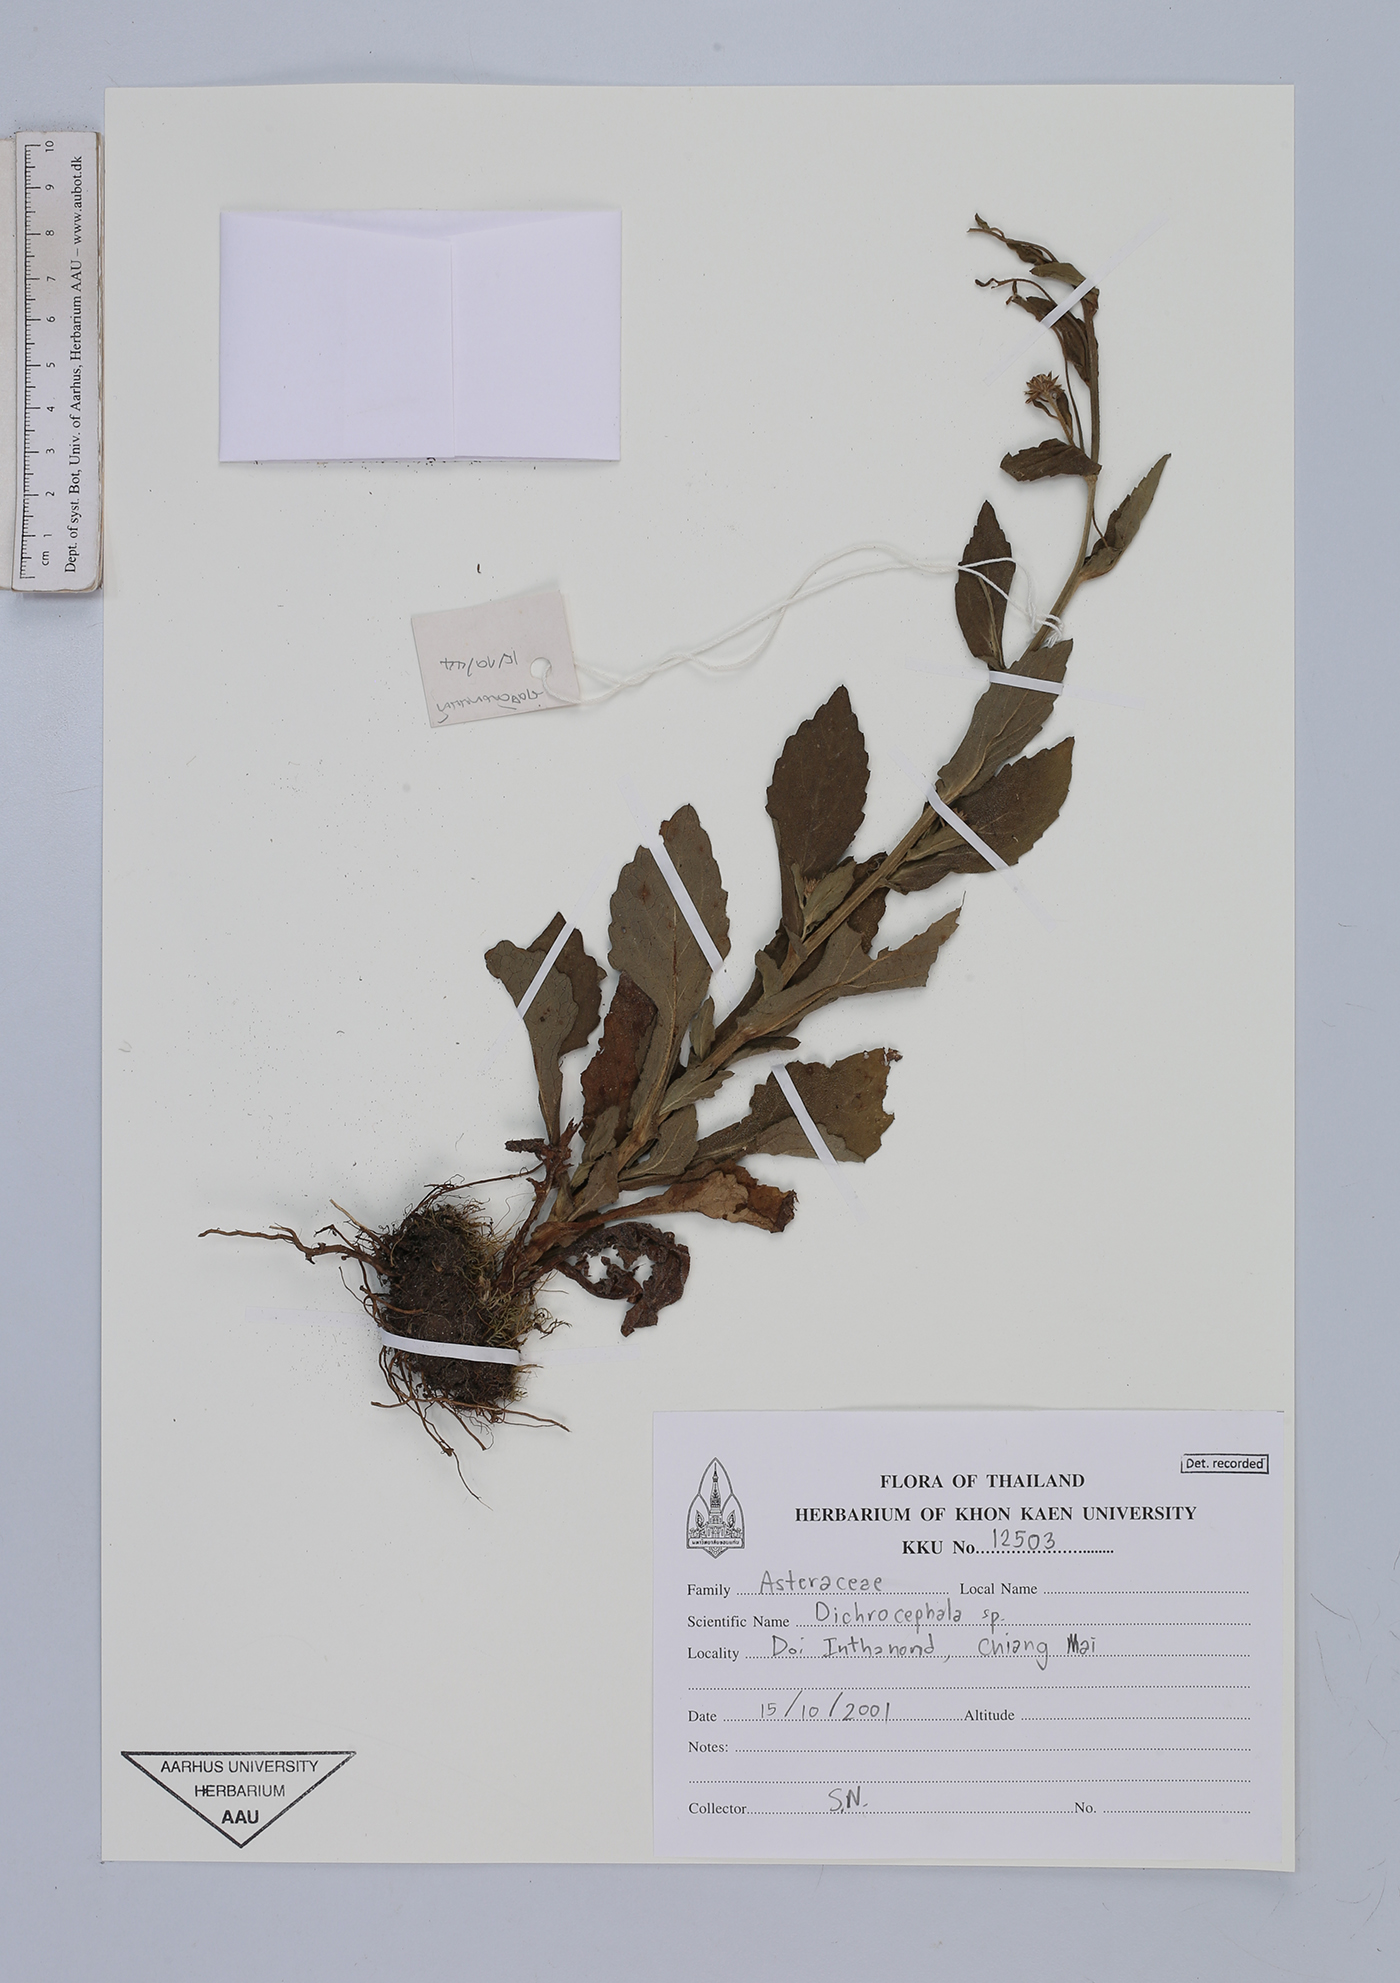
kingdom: Plantae
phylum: Tracheophyta
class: Magnoliopsida
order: Asterales
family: Asteraceae
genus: Dichrocephala
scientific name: Dichrocephala
